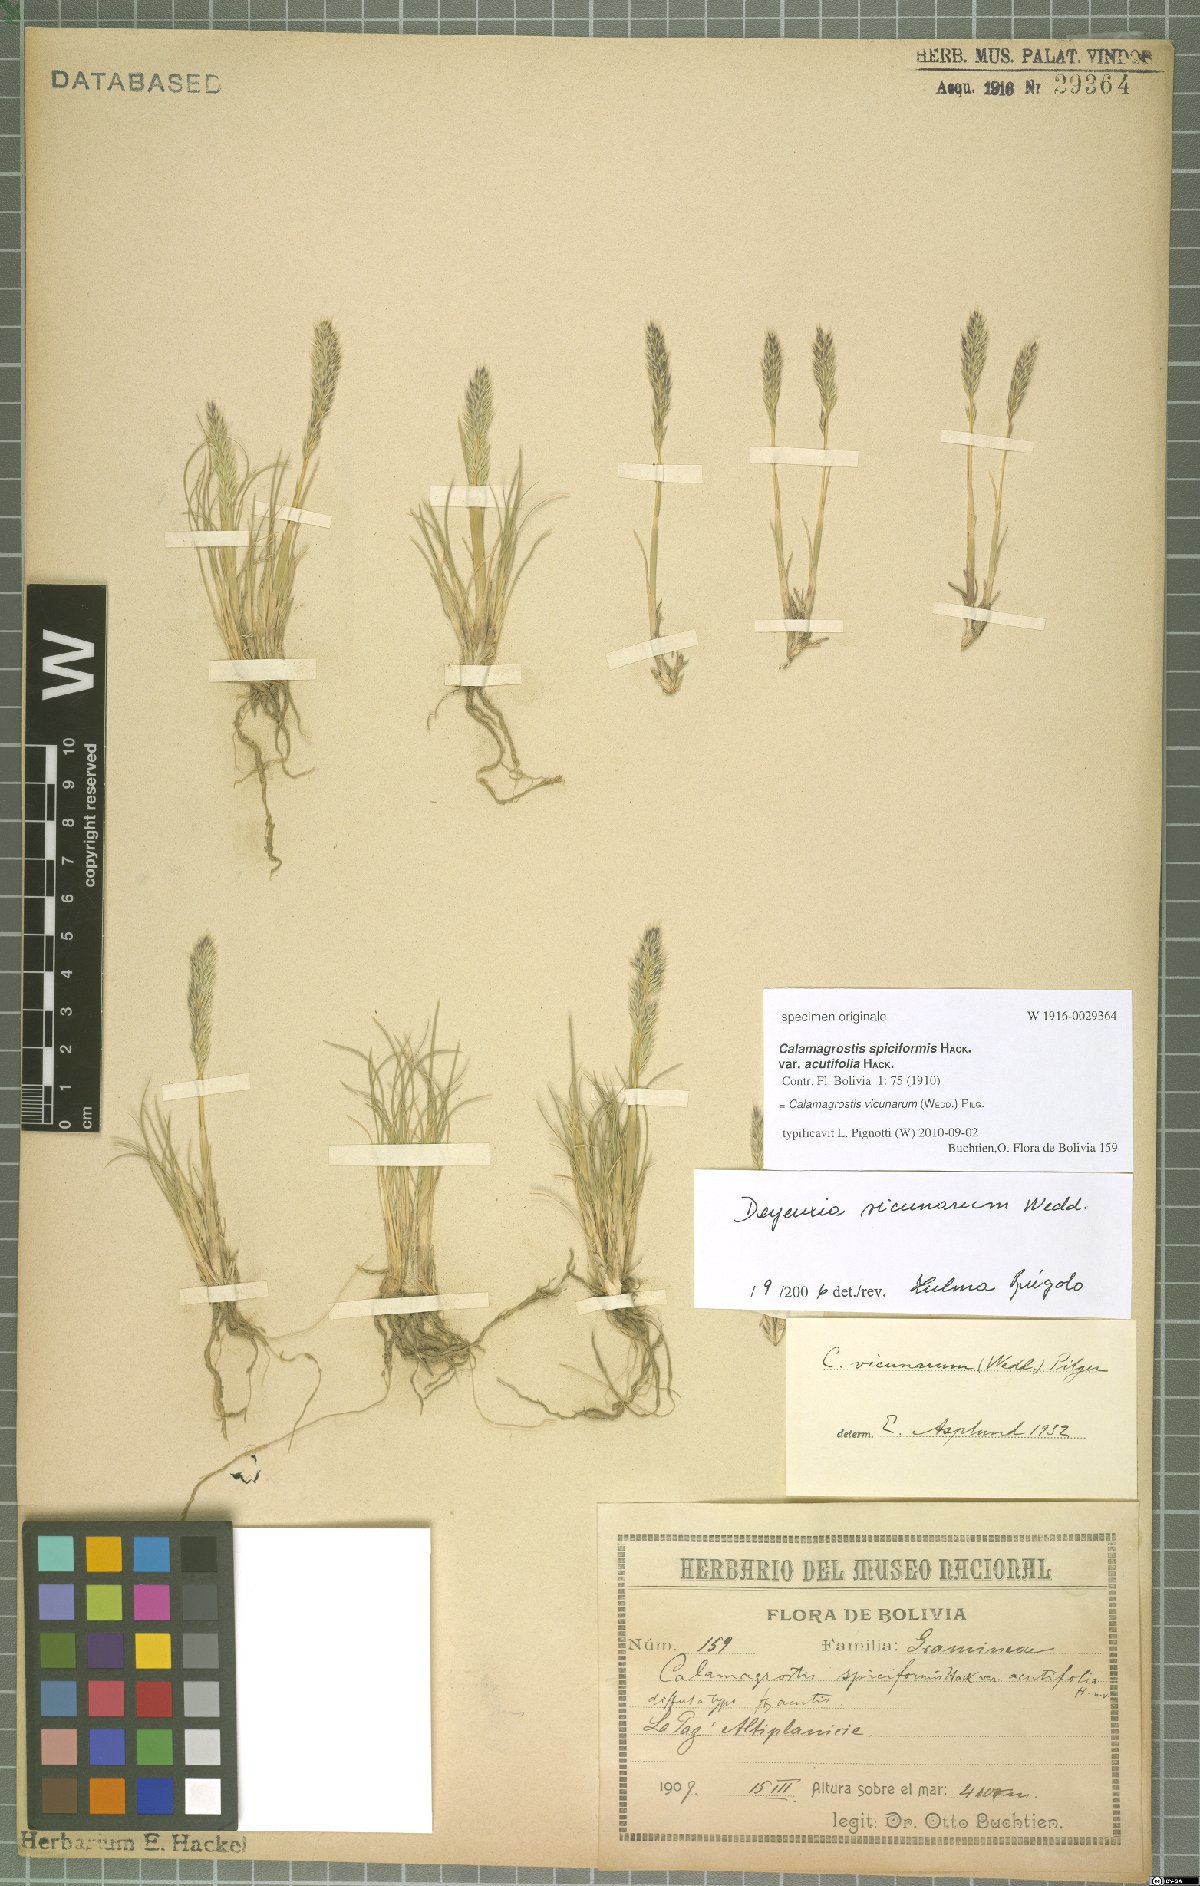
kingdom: Plantae
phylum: Tracheophyta
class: Liliopsida
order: Poales
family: Poaceae
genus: Cinnagrostis
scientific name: Cinnagrostis vicunarum
